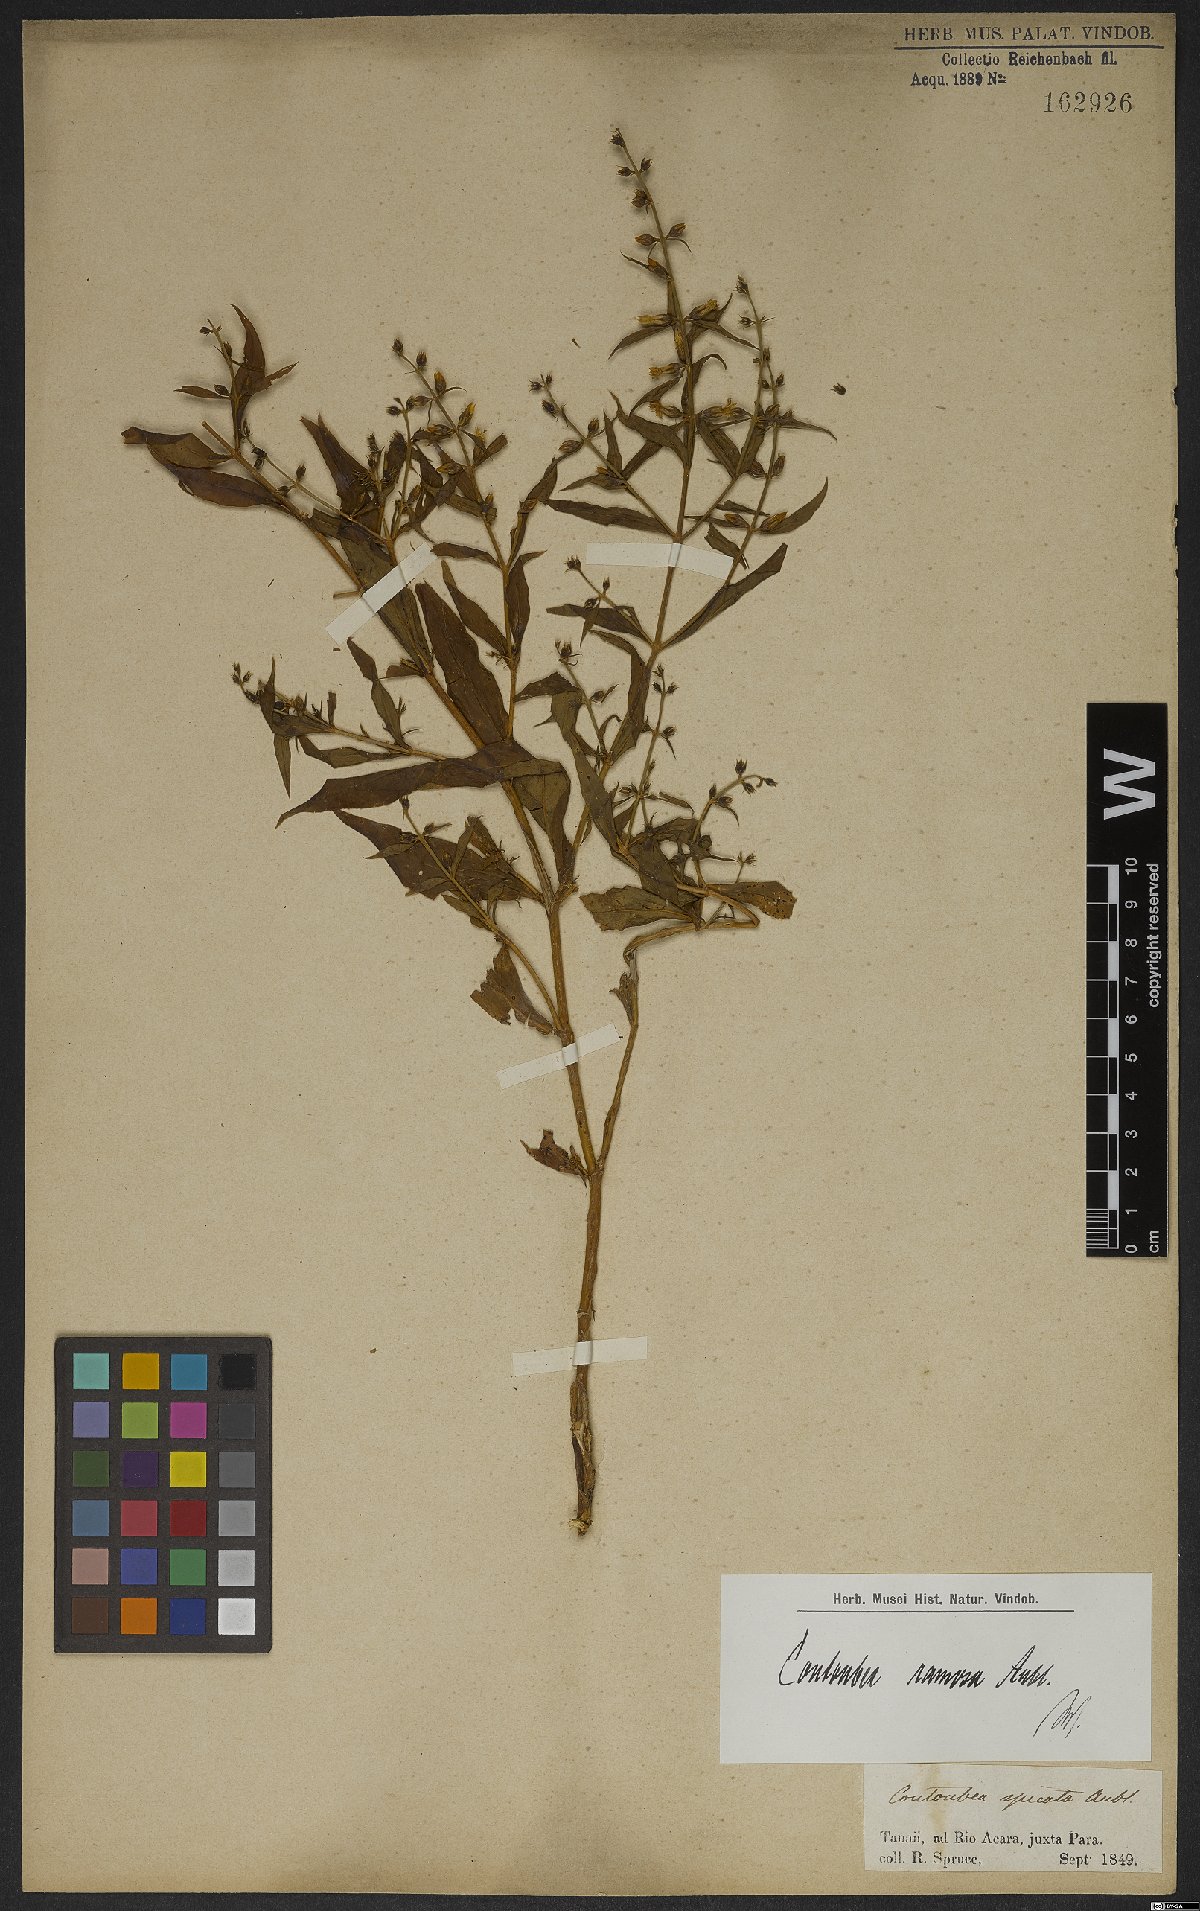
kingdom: Plantae
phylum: Tracheophyta
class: Magnoliopsida
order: Gentianales
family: Gentianaceae
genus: Coutoubea
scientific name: Coutoubea ramosa
